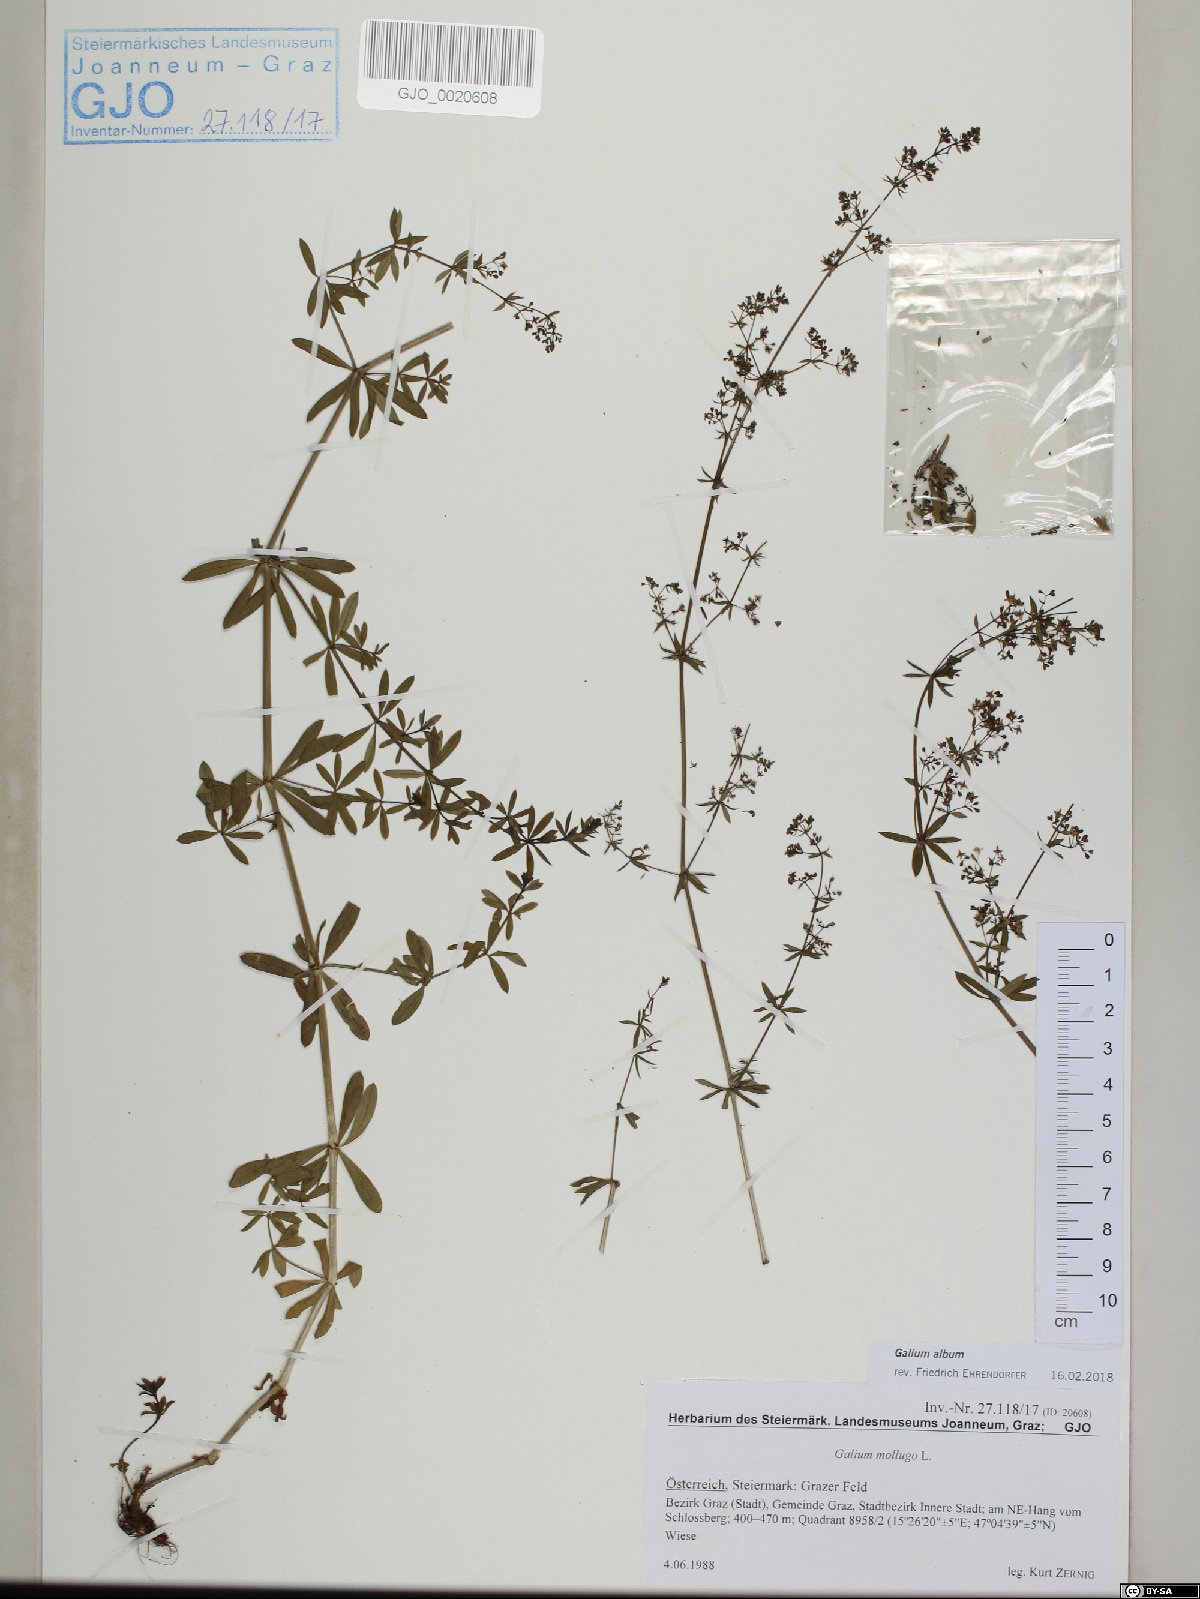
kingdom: Plantae
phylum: Tracheophyta
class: Magnoliopsida
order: Gentianales
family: Rubiaceae
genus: Galium
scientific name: Galium album
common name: White bedstraw
